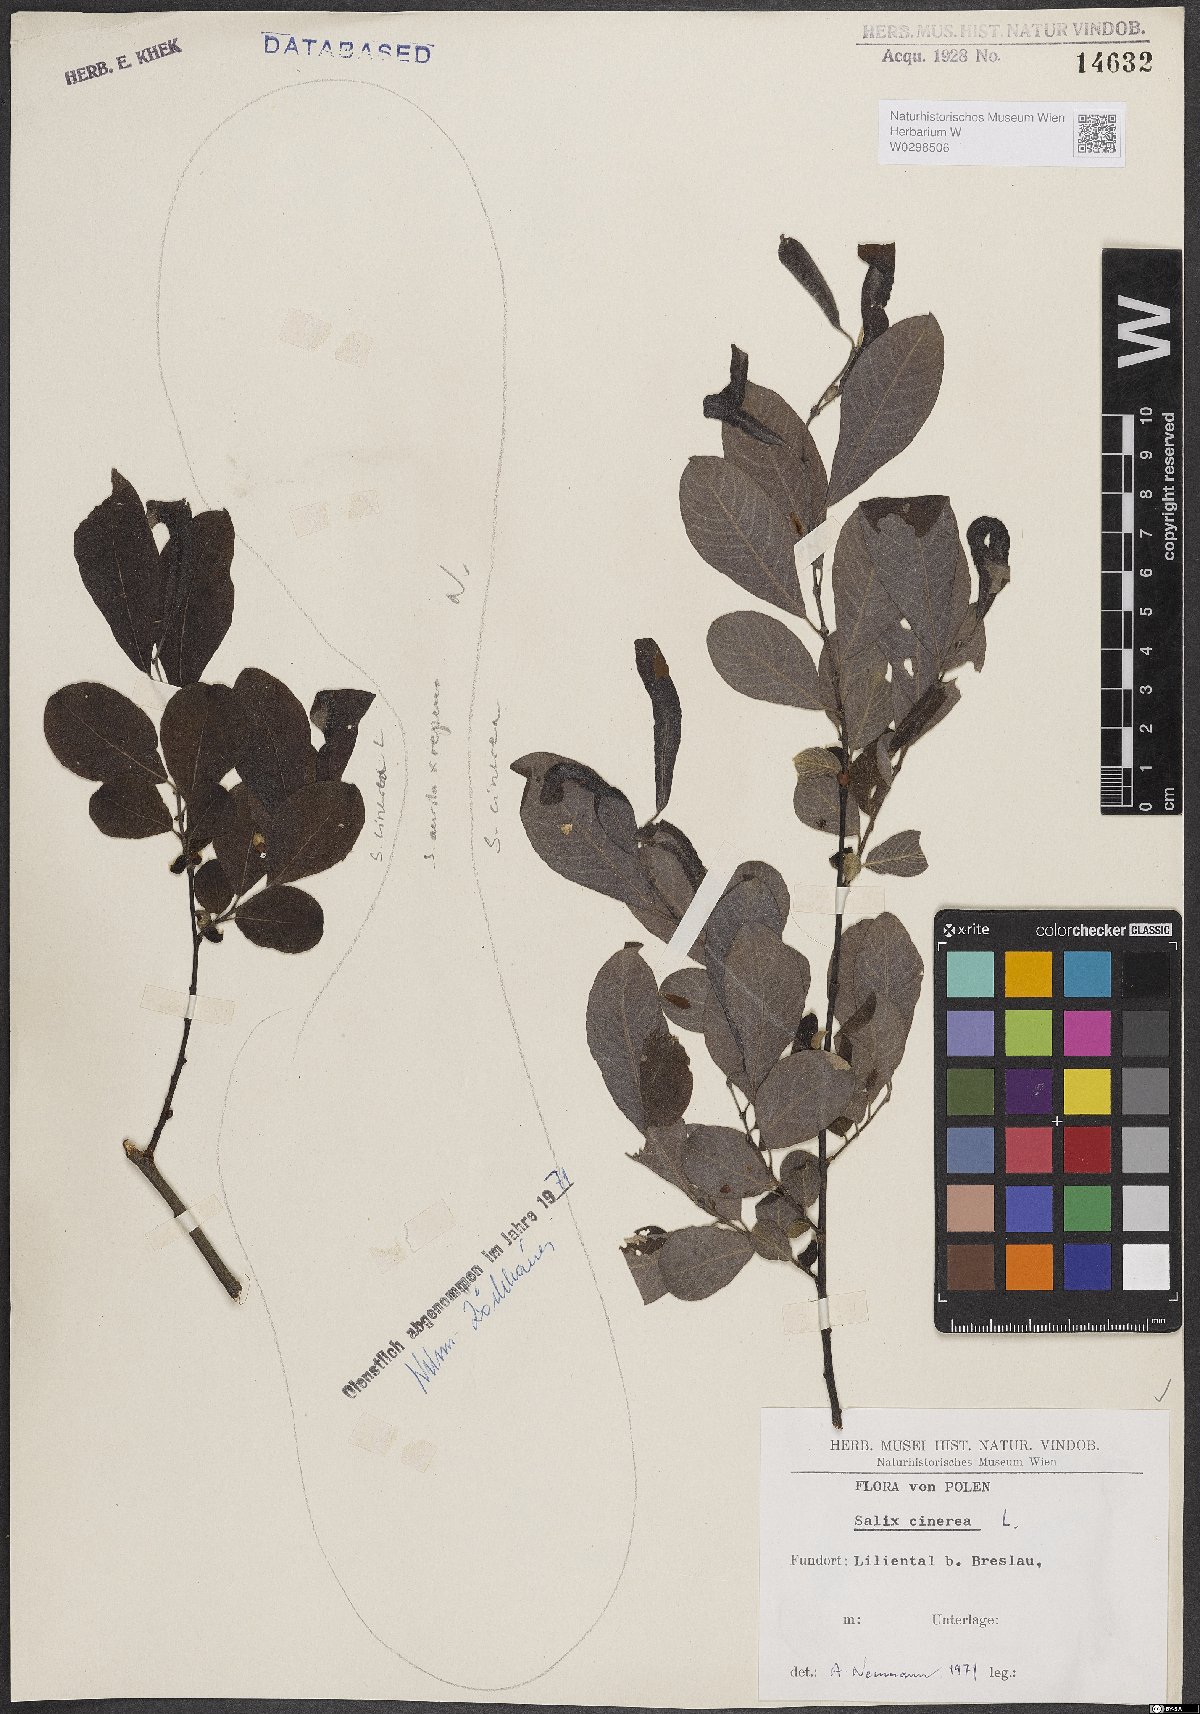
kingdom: Plantae
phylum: Tracheophyta
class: Magnoliopsida
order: Malpighiales
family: Salicaceae
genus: Salix
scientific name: Salix cinerea
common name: Common sallow
